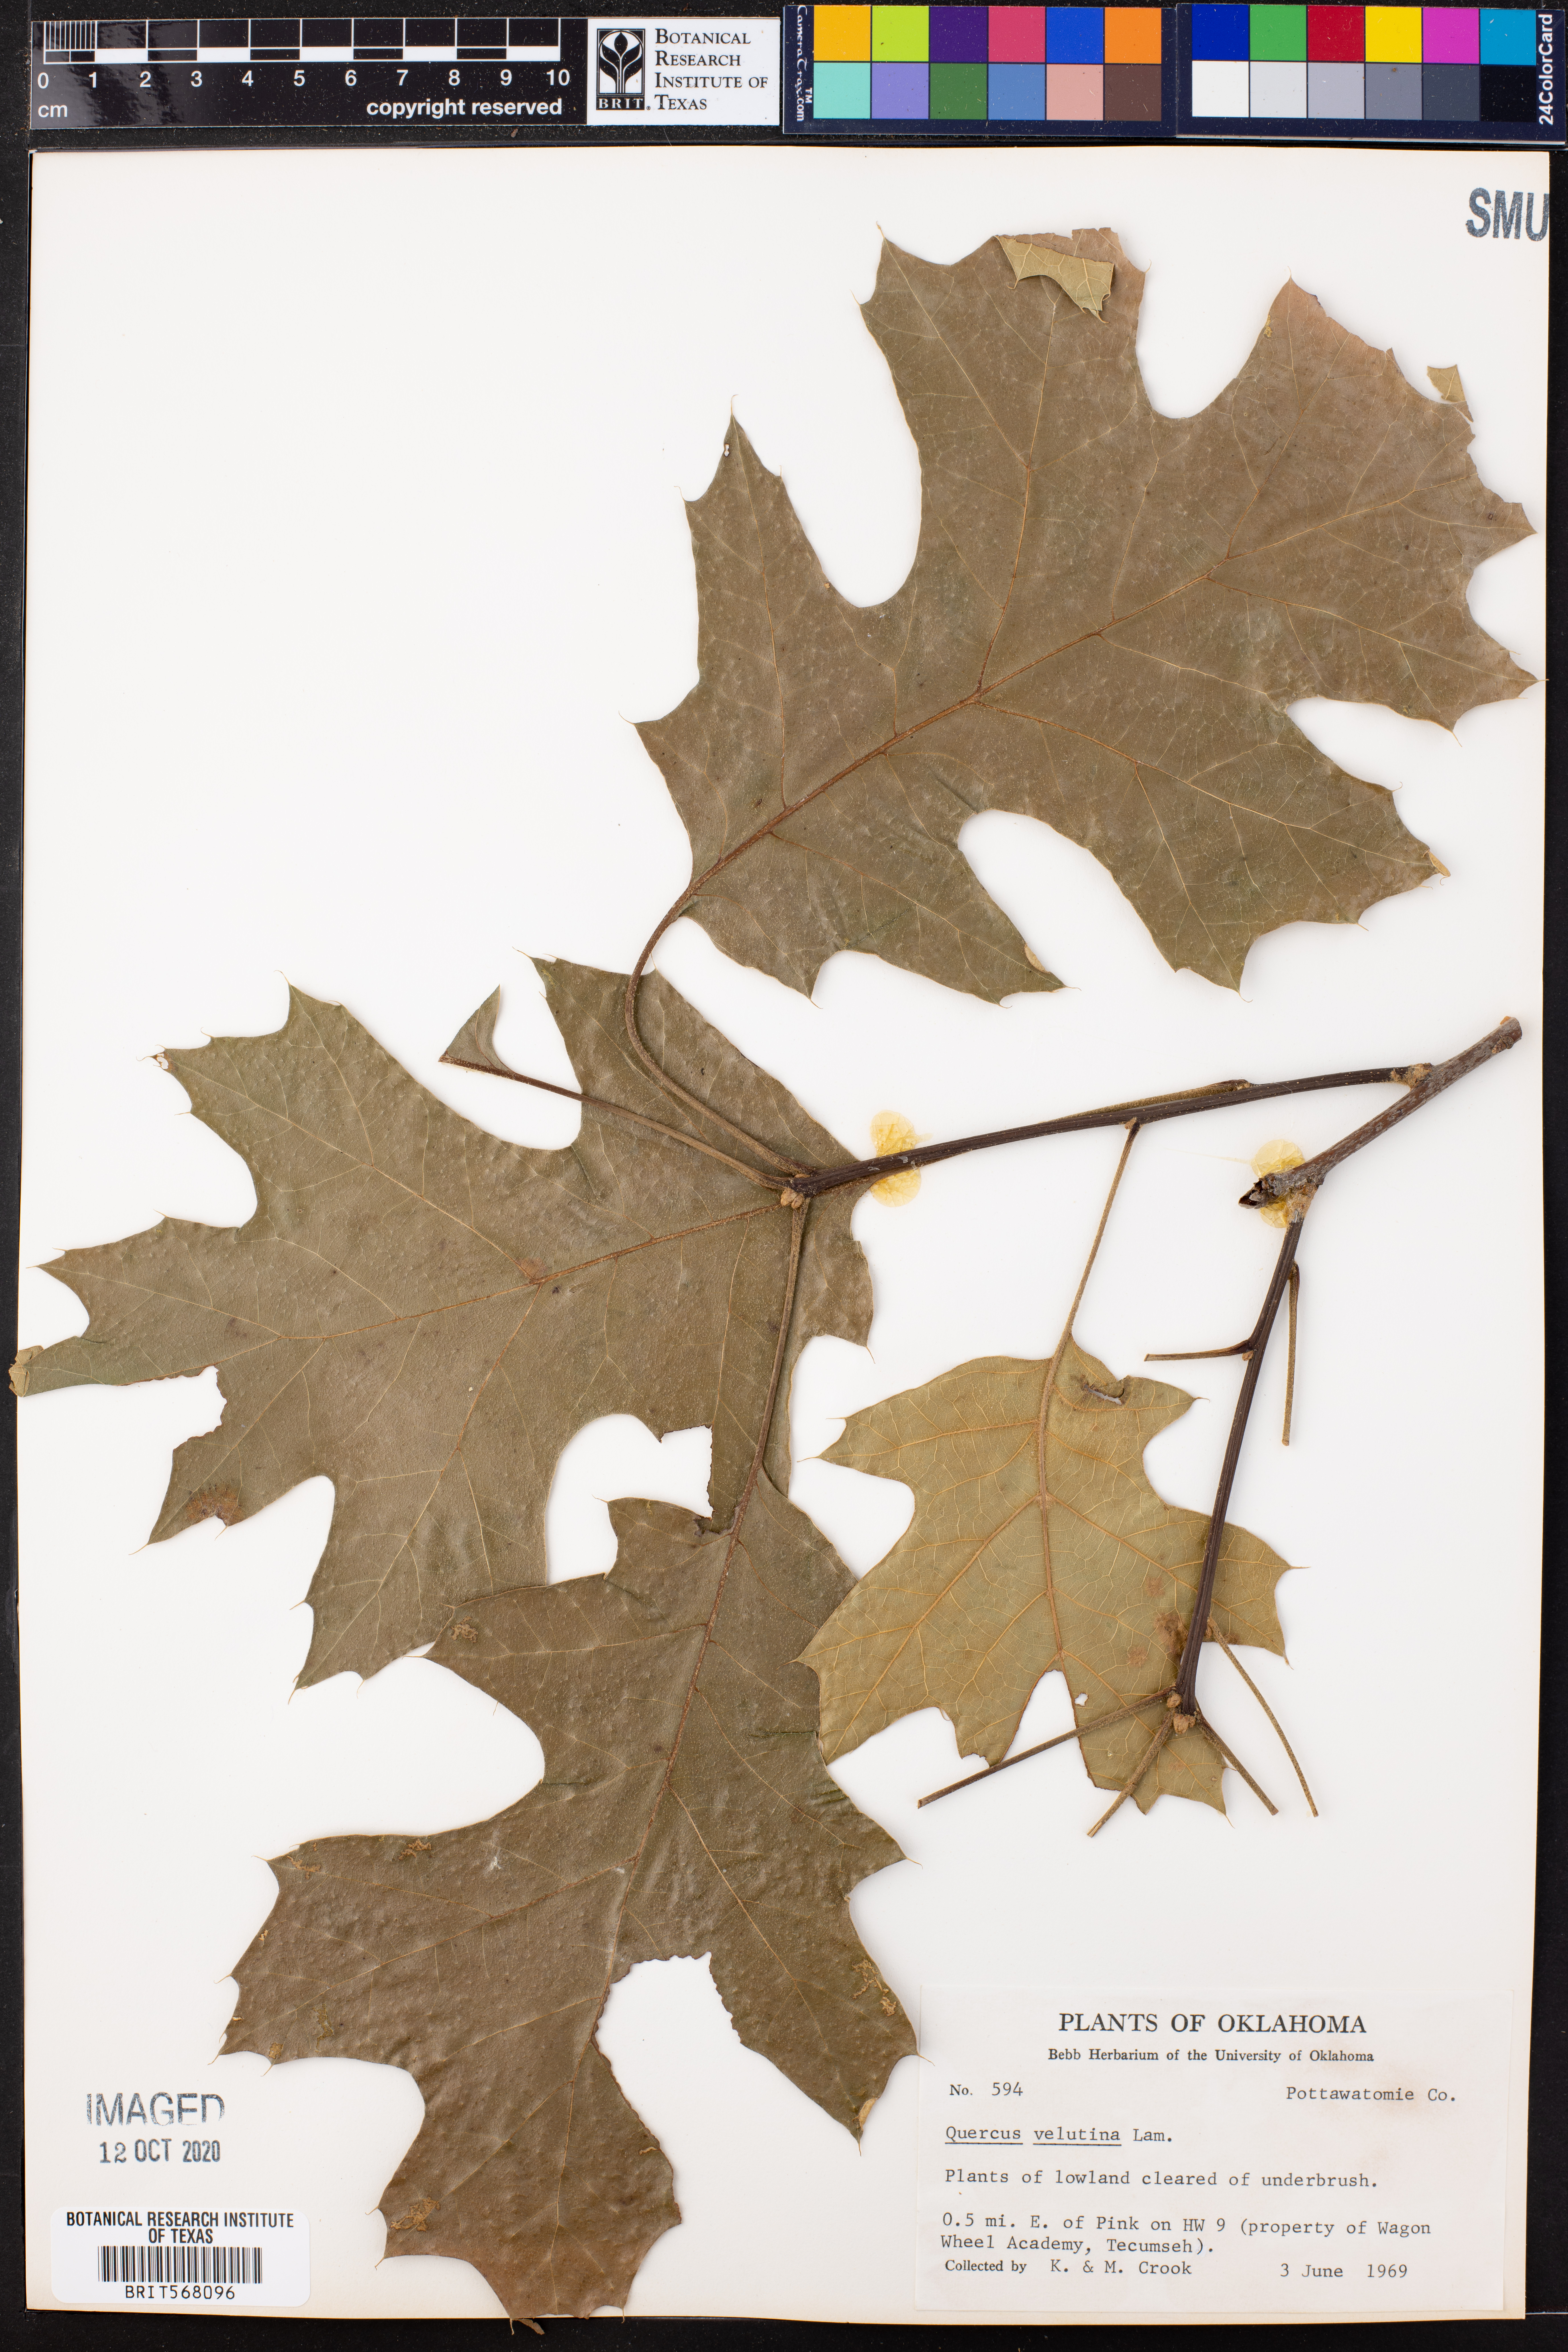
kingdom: Plantae
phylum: Tracheophyta
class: Magnoliopsida
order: Fagales
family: Fagaceae
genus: Quercus
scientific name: Quercus velutina
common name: Black oak
